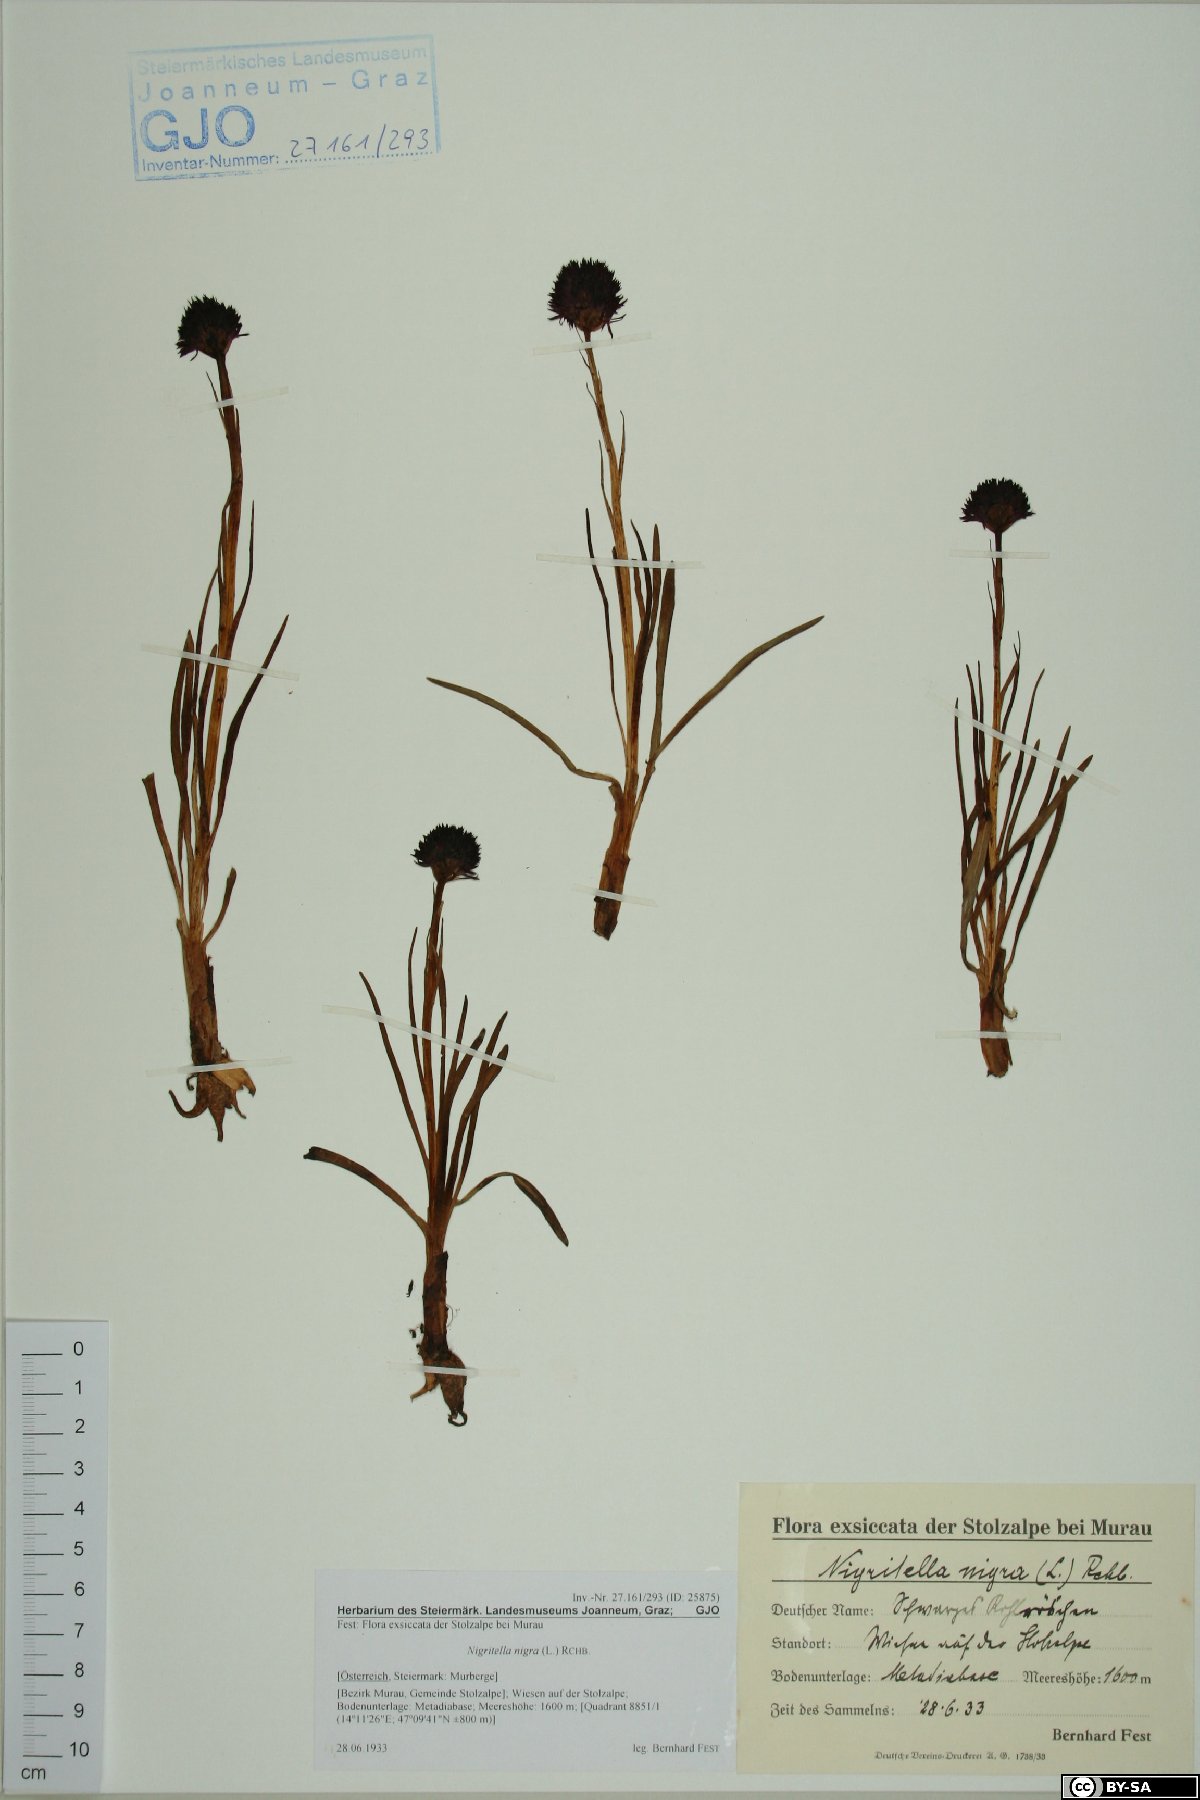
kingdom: Plantae
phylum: Tracheophyta
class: Liliopsida
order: Asparagales
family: Orchidaceae
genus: Gymnadenia
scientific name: Gymnadenia nigra
